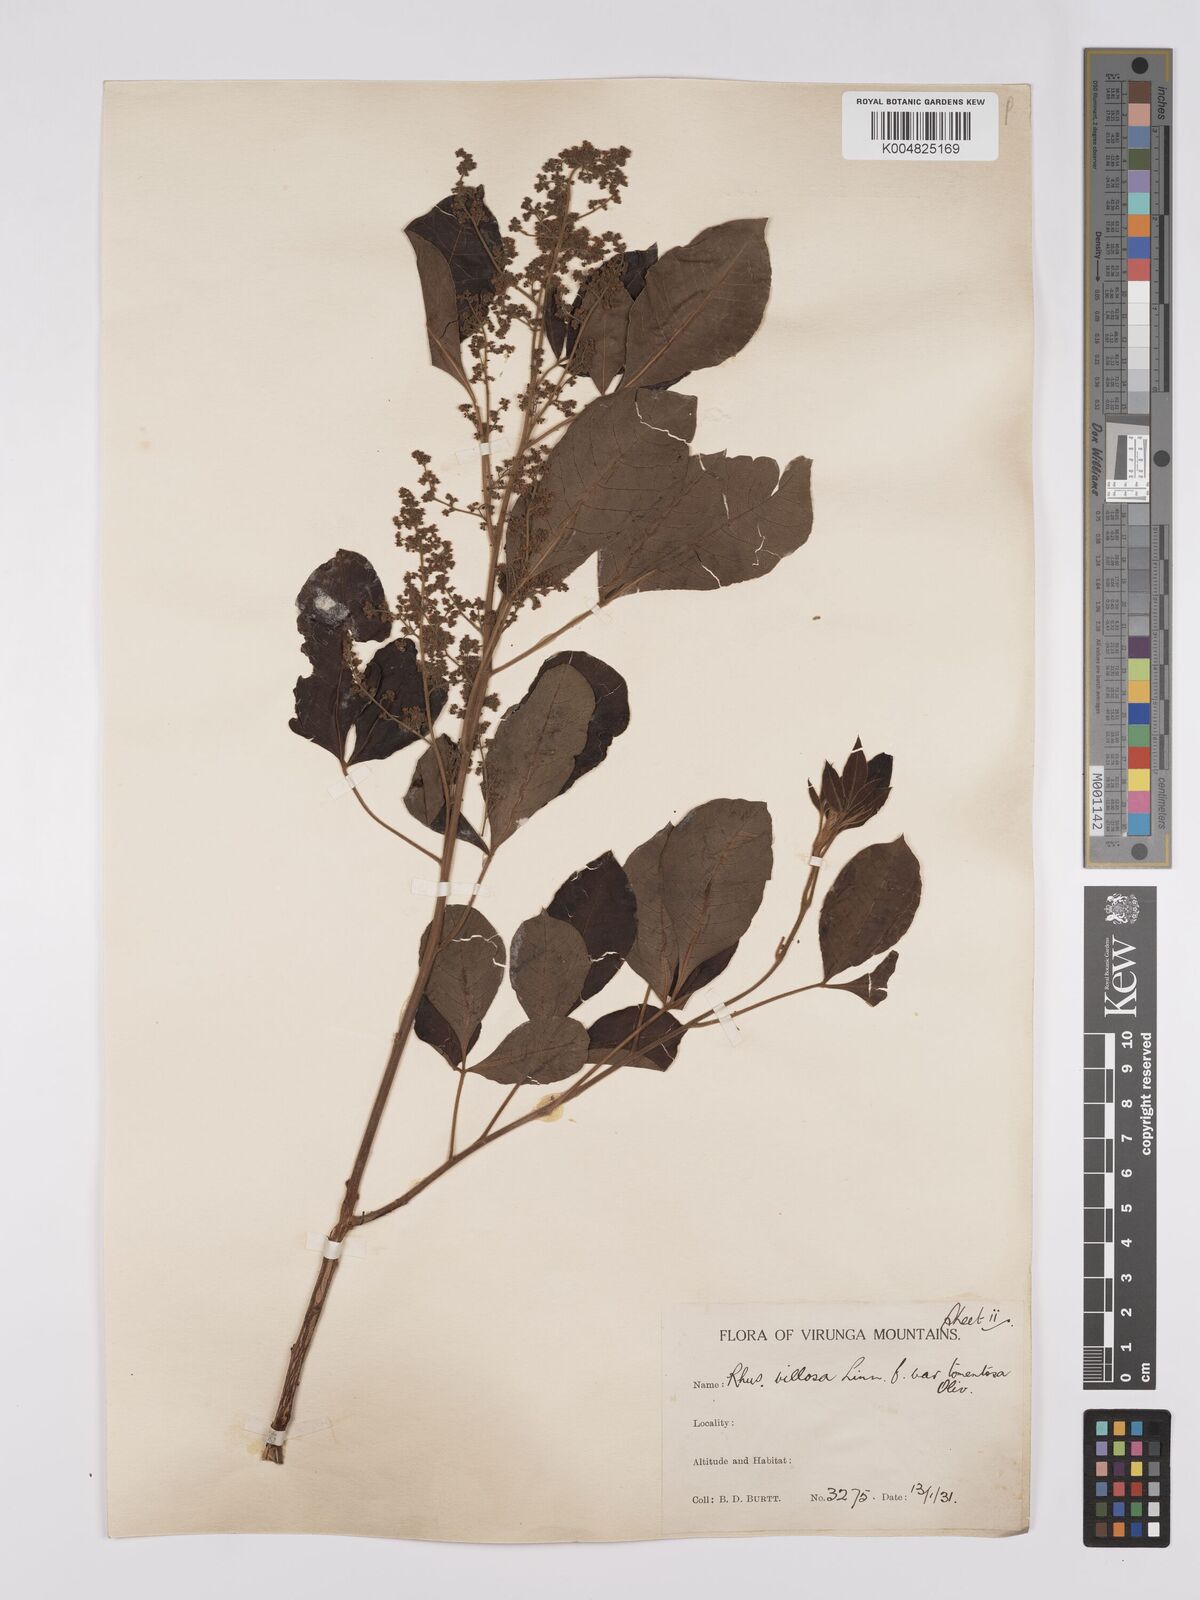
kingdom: Plantae
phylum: Tracheophyta
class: Magnoliopsida
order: Sapindales
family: Anacardiaceae
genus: Searsia
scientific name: Searsia longipes
